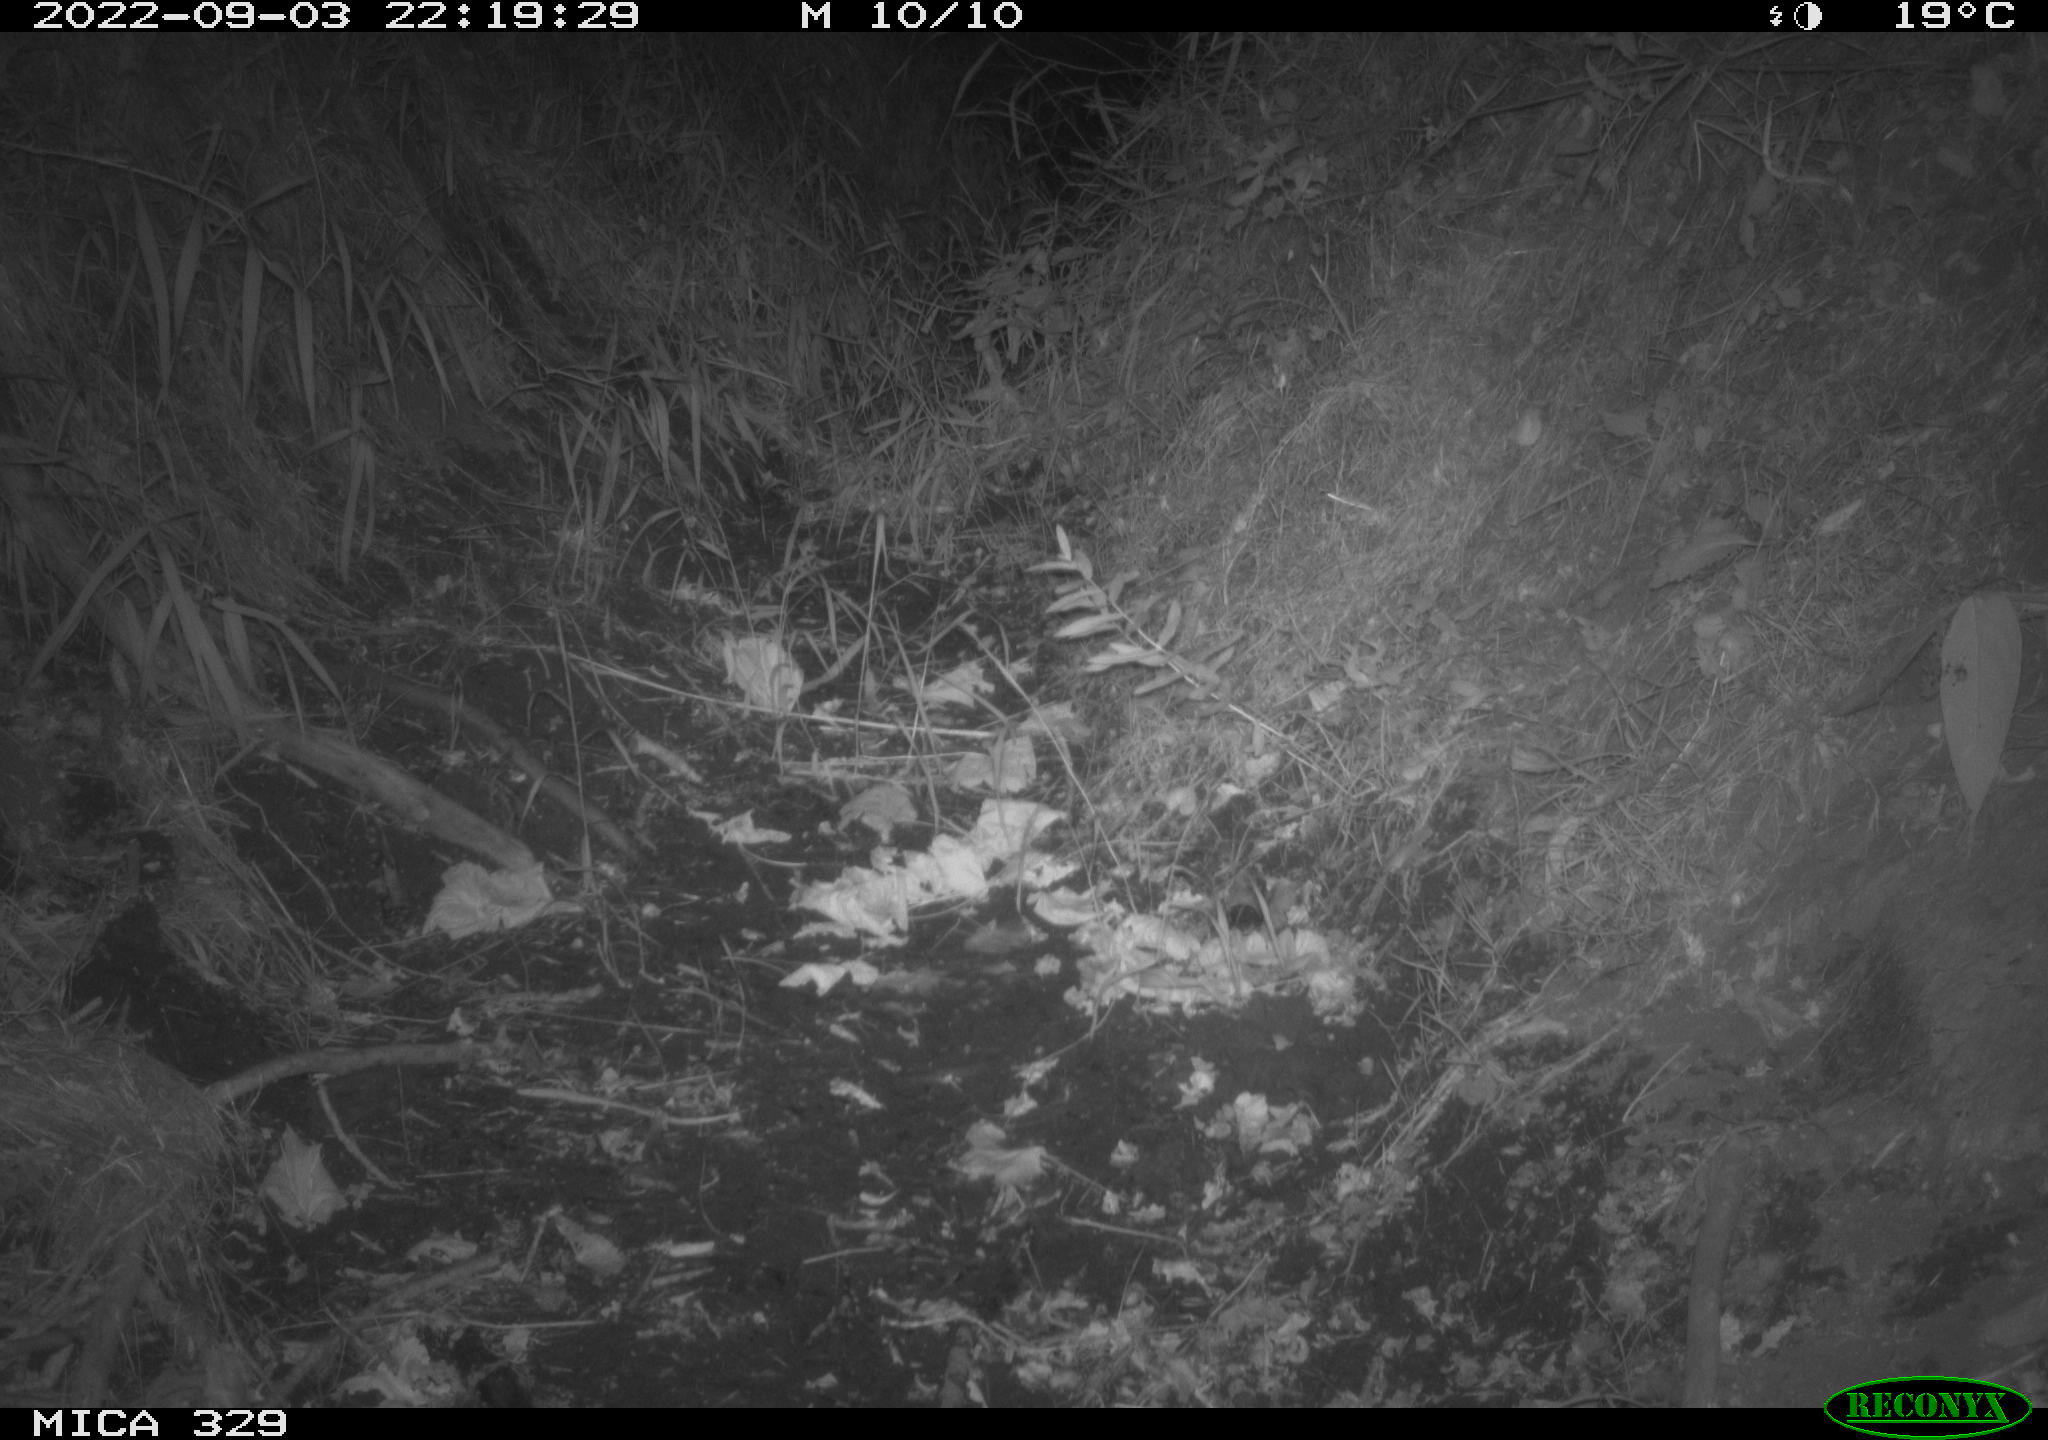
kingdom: Animalia
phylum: Chordata
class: Mammalia
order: Carnivora
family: Mustelidae
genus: Mustela
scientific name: Mustela putorius
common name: European polecat
